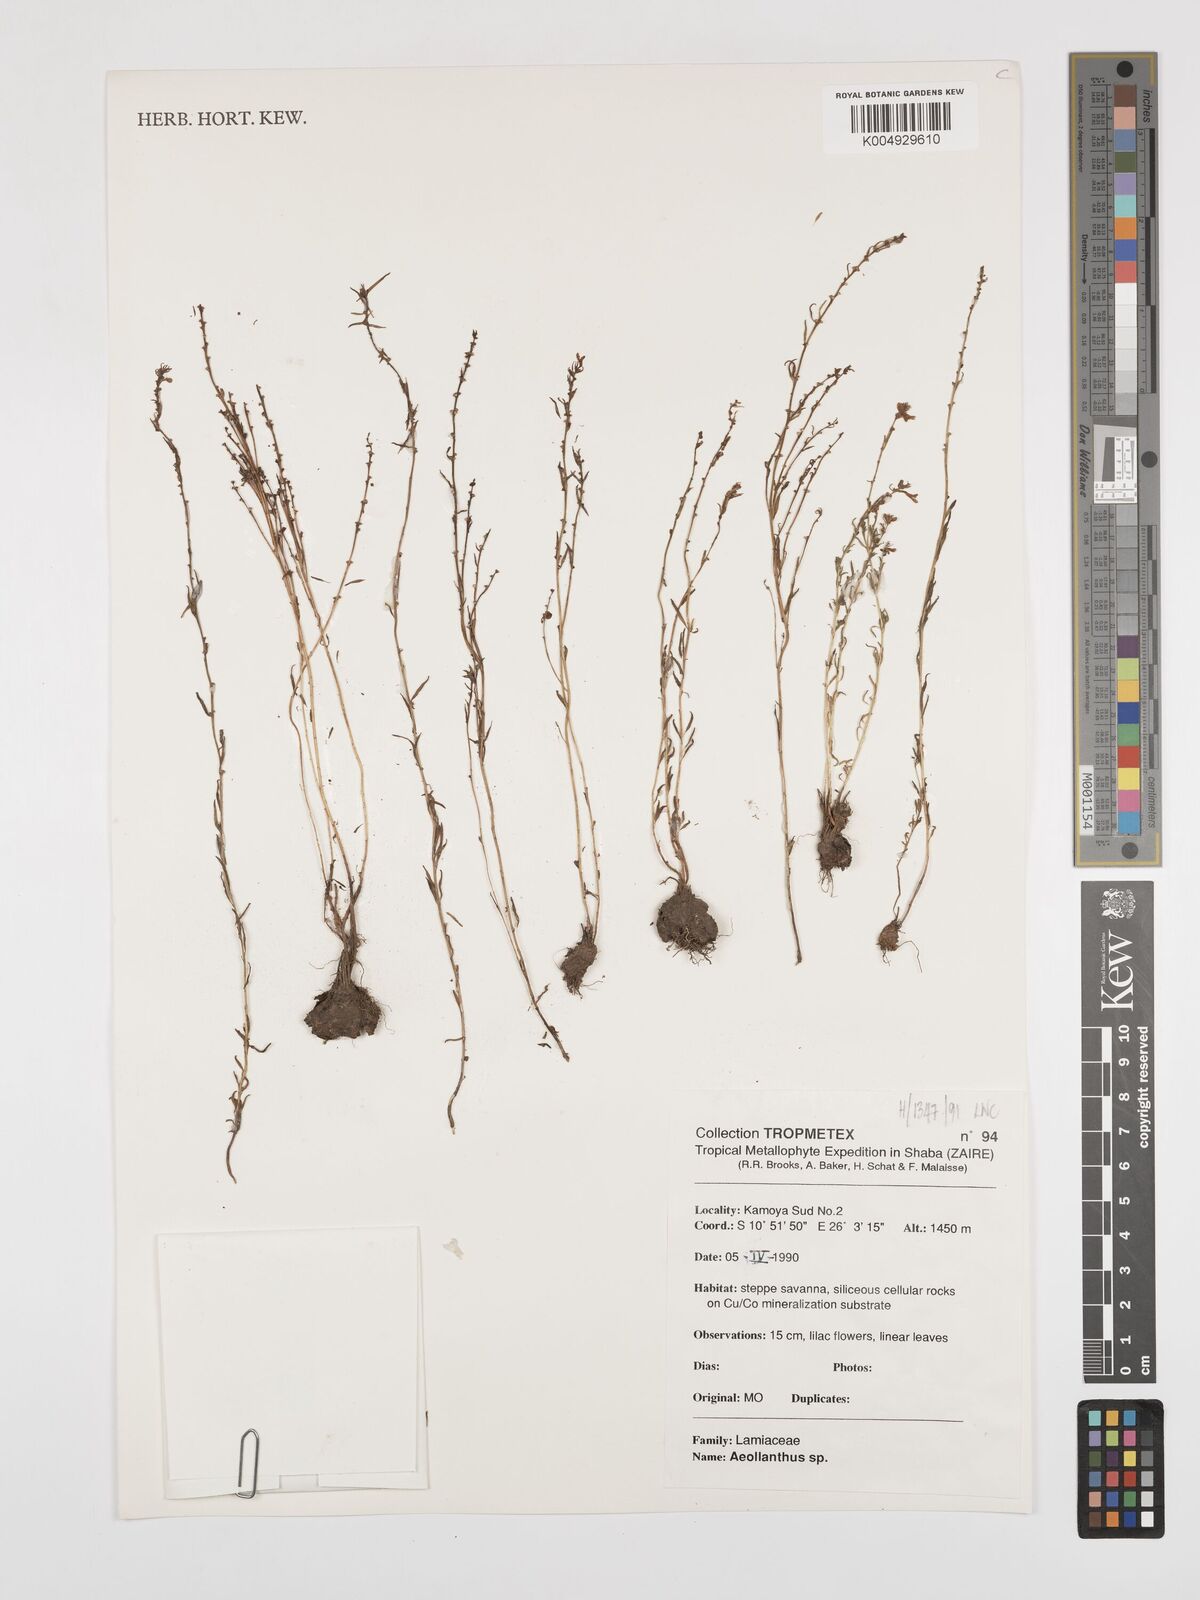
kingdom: Plantae
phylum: Tracheophyta
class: Magnoliopsida
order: Lamiales
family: Lamiaceae
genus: Aeollanthus
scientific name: Aeollanthus
